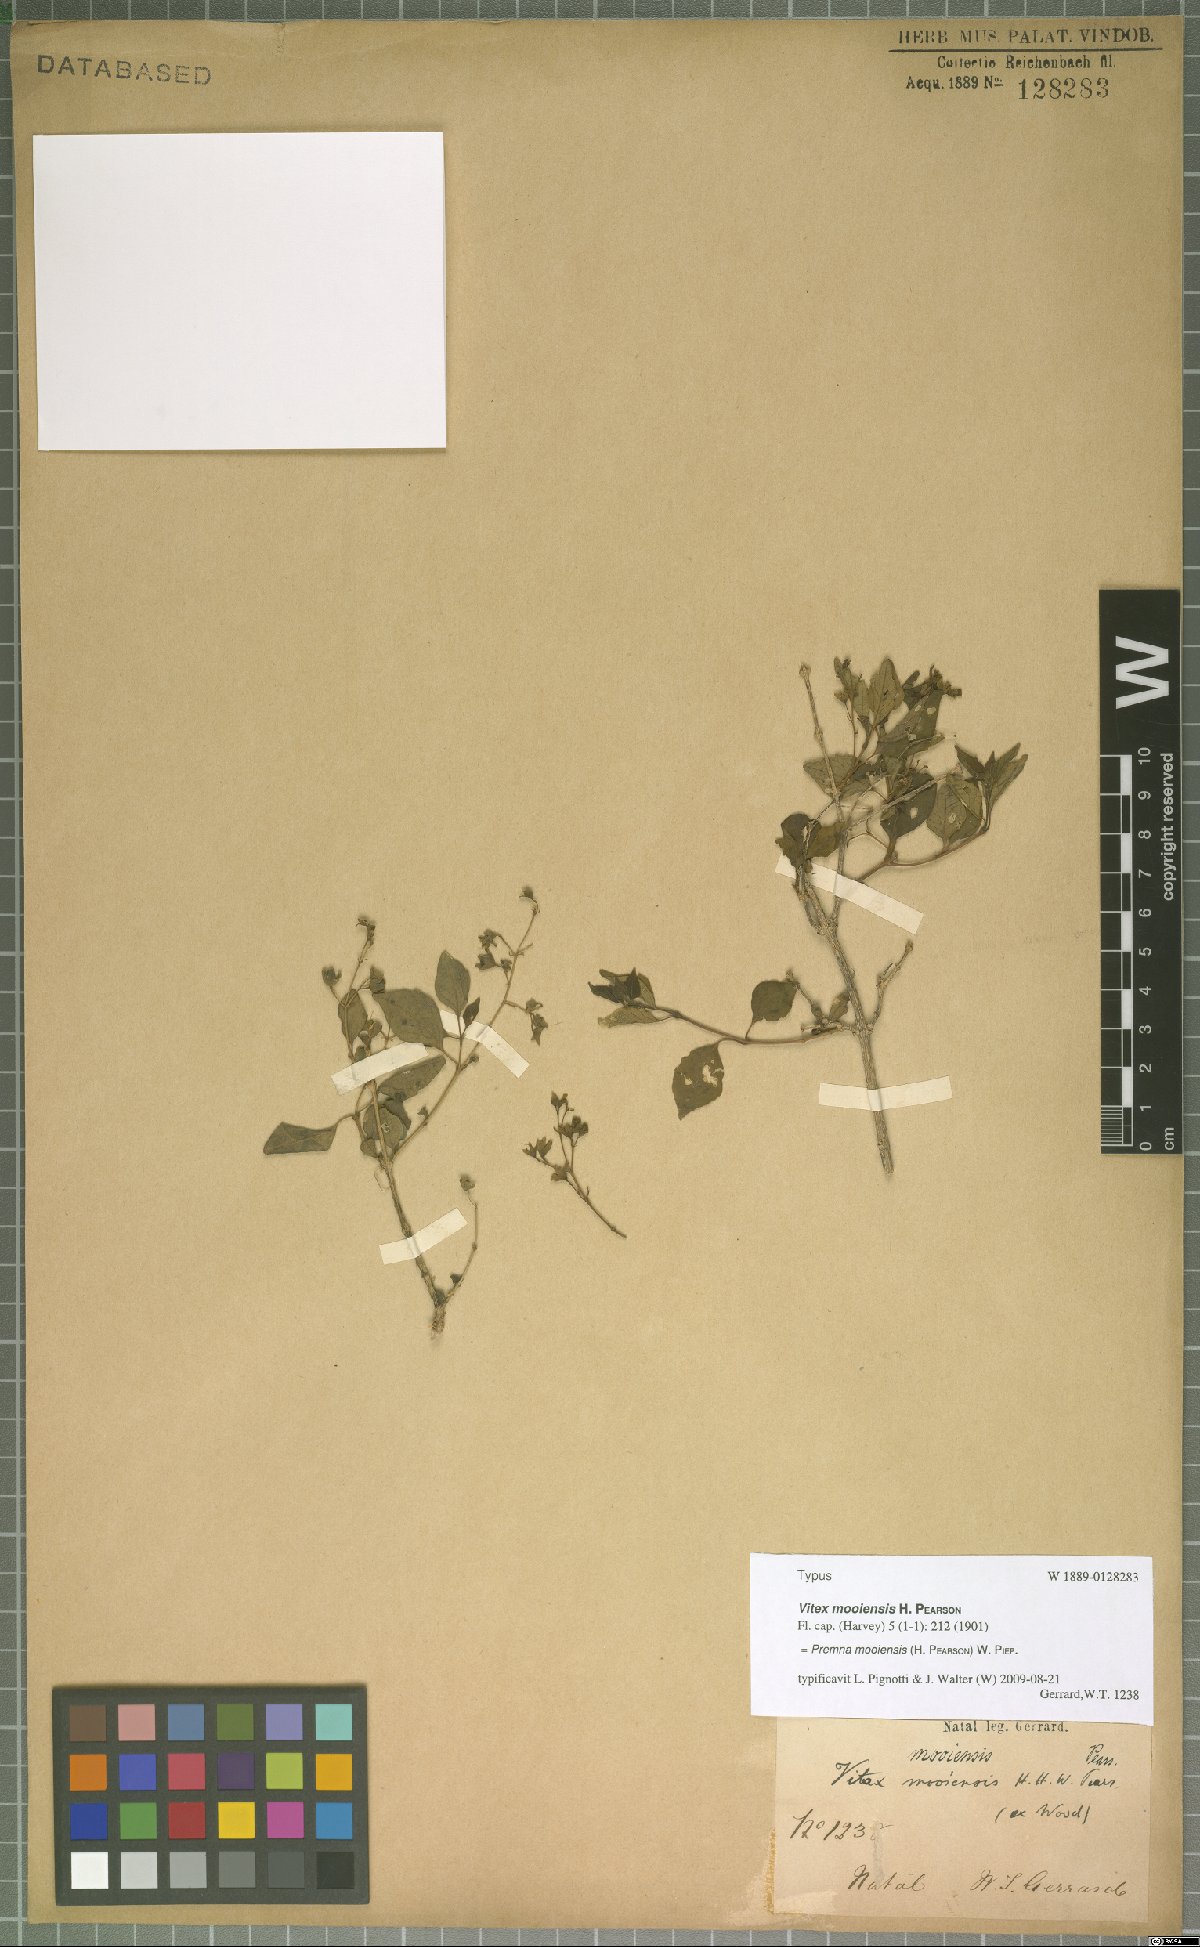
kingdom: Plantae
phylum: Tracheophyta
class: Magnoliopsida
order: Lamiales
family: Lamiaceae
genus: Vitex
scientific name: Vitex mooiensis
